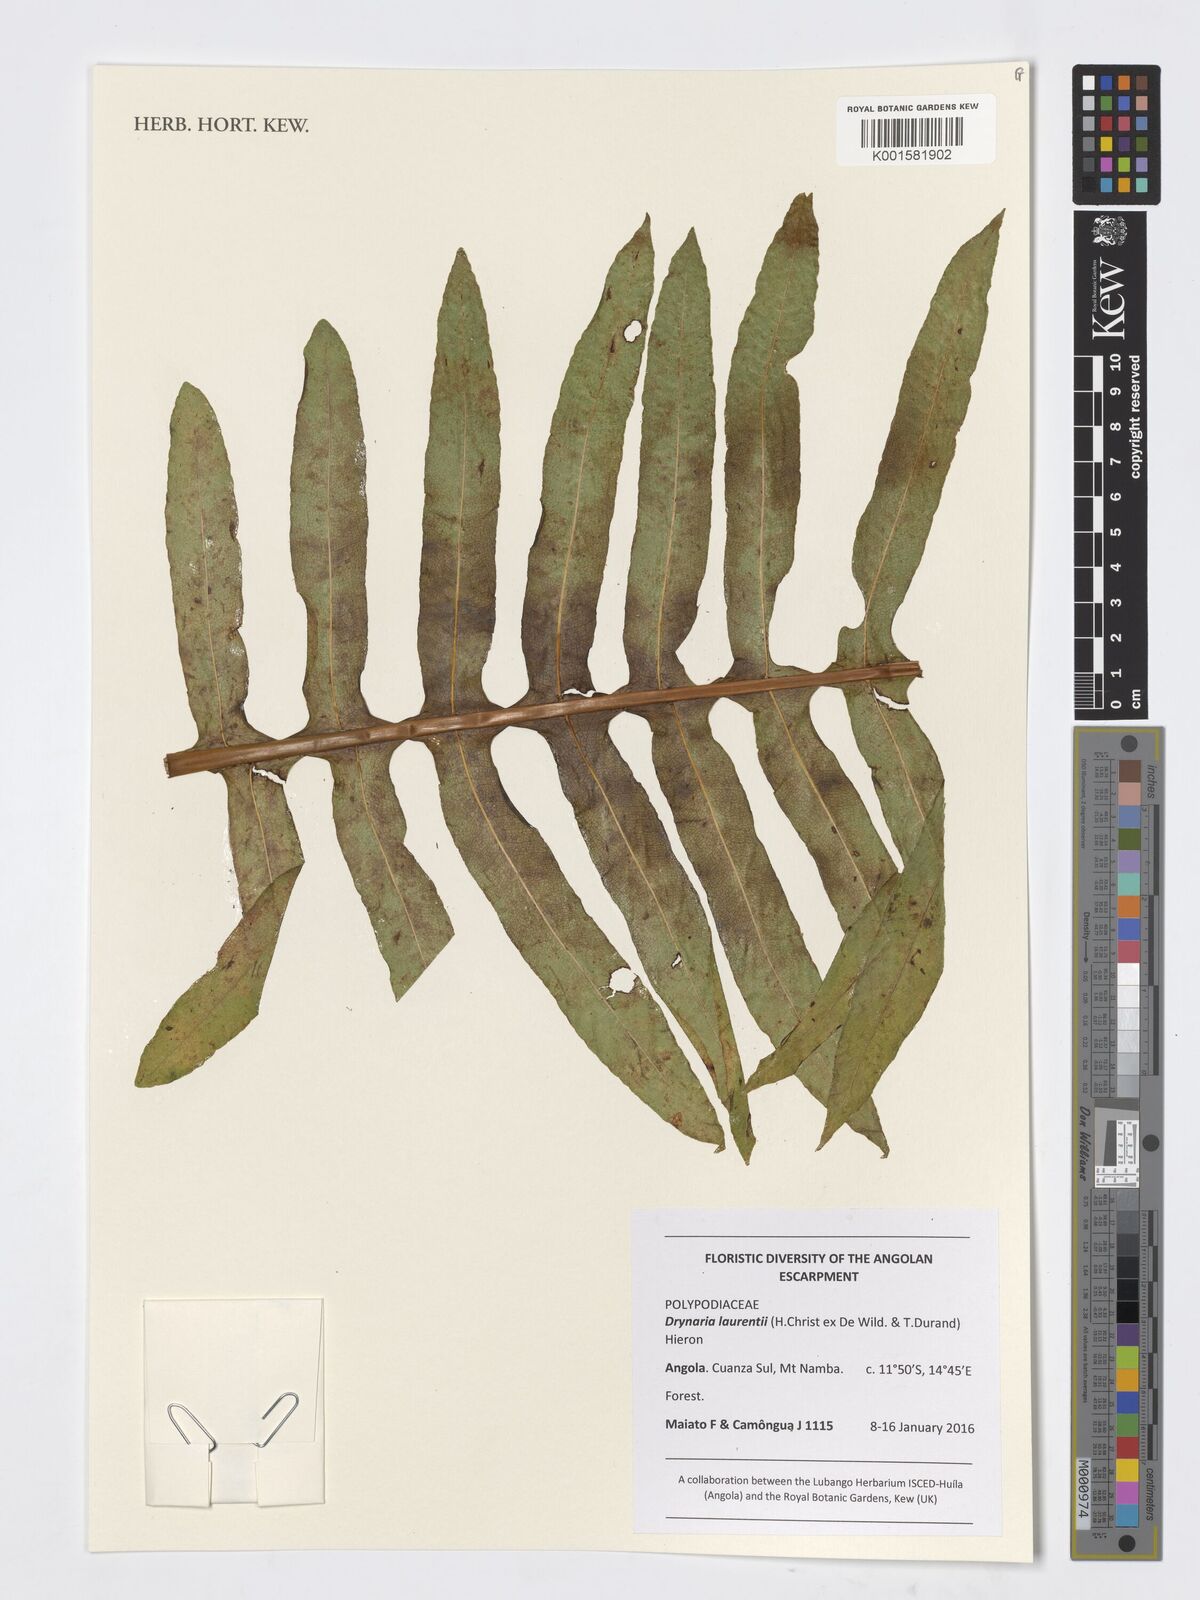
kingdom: Plantae
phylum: Tracheophyta
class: Polypodiopsida
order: Polypodiales
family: Polypodiaceae
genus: Drynaria
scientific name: Drynaria laurentii
